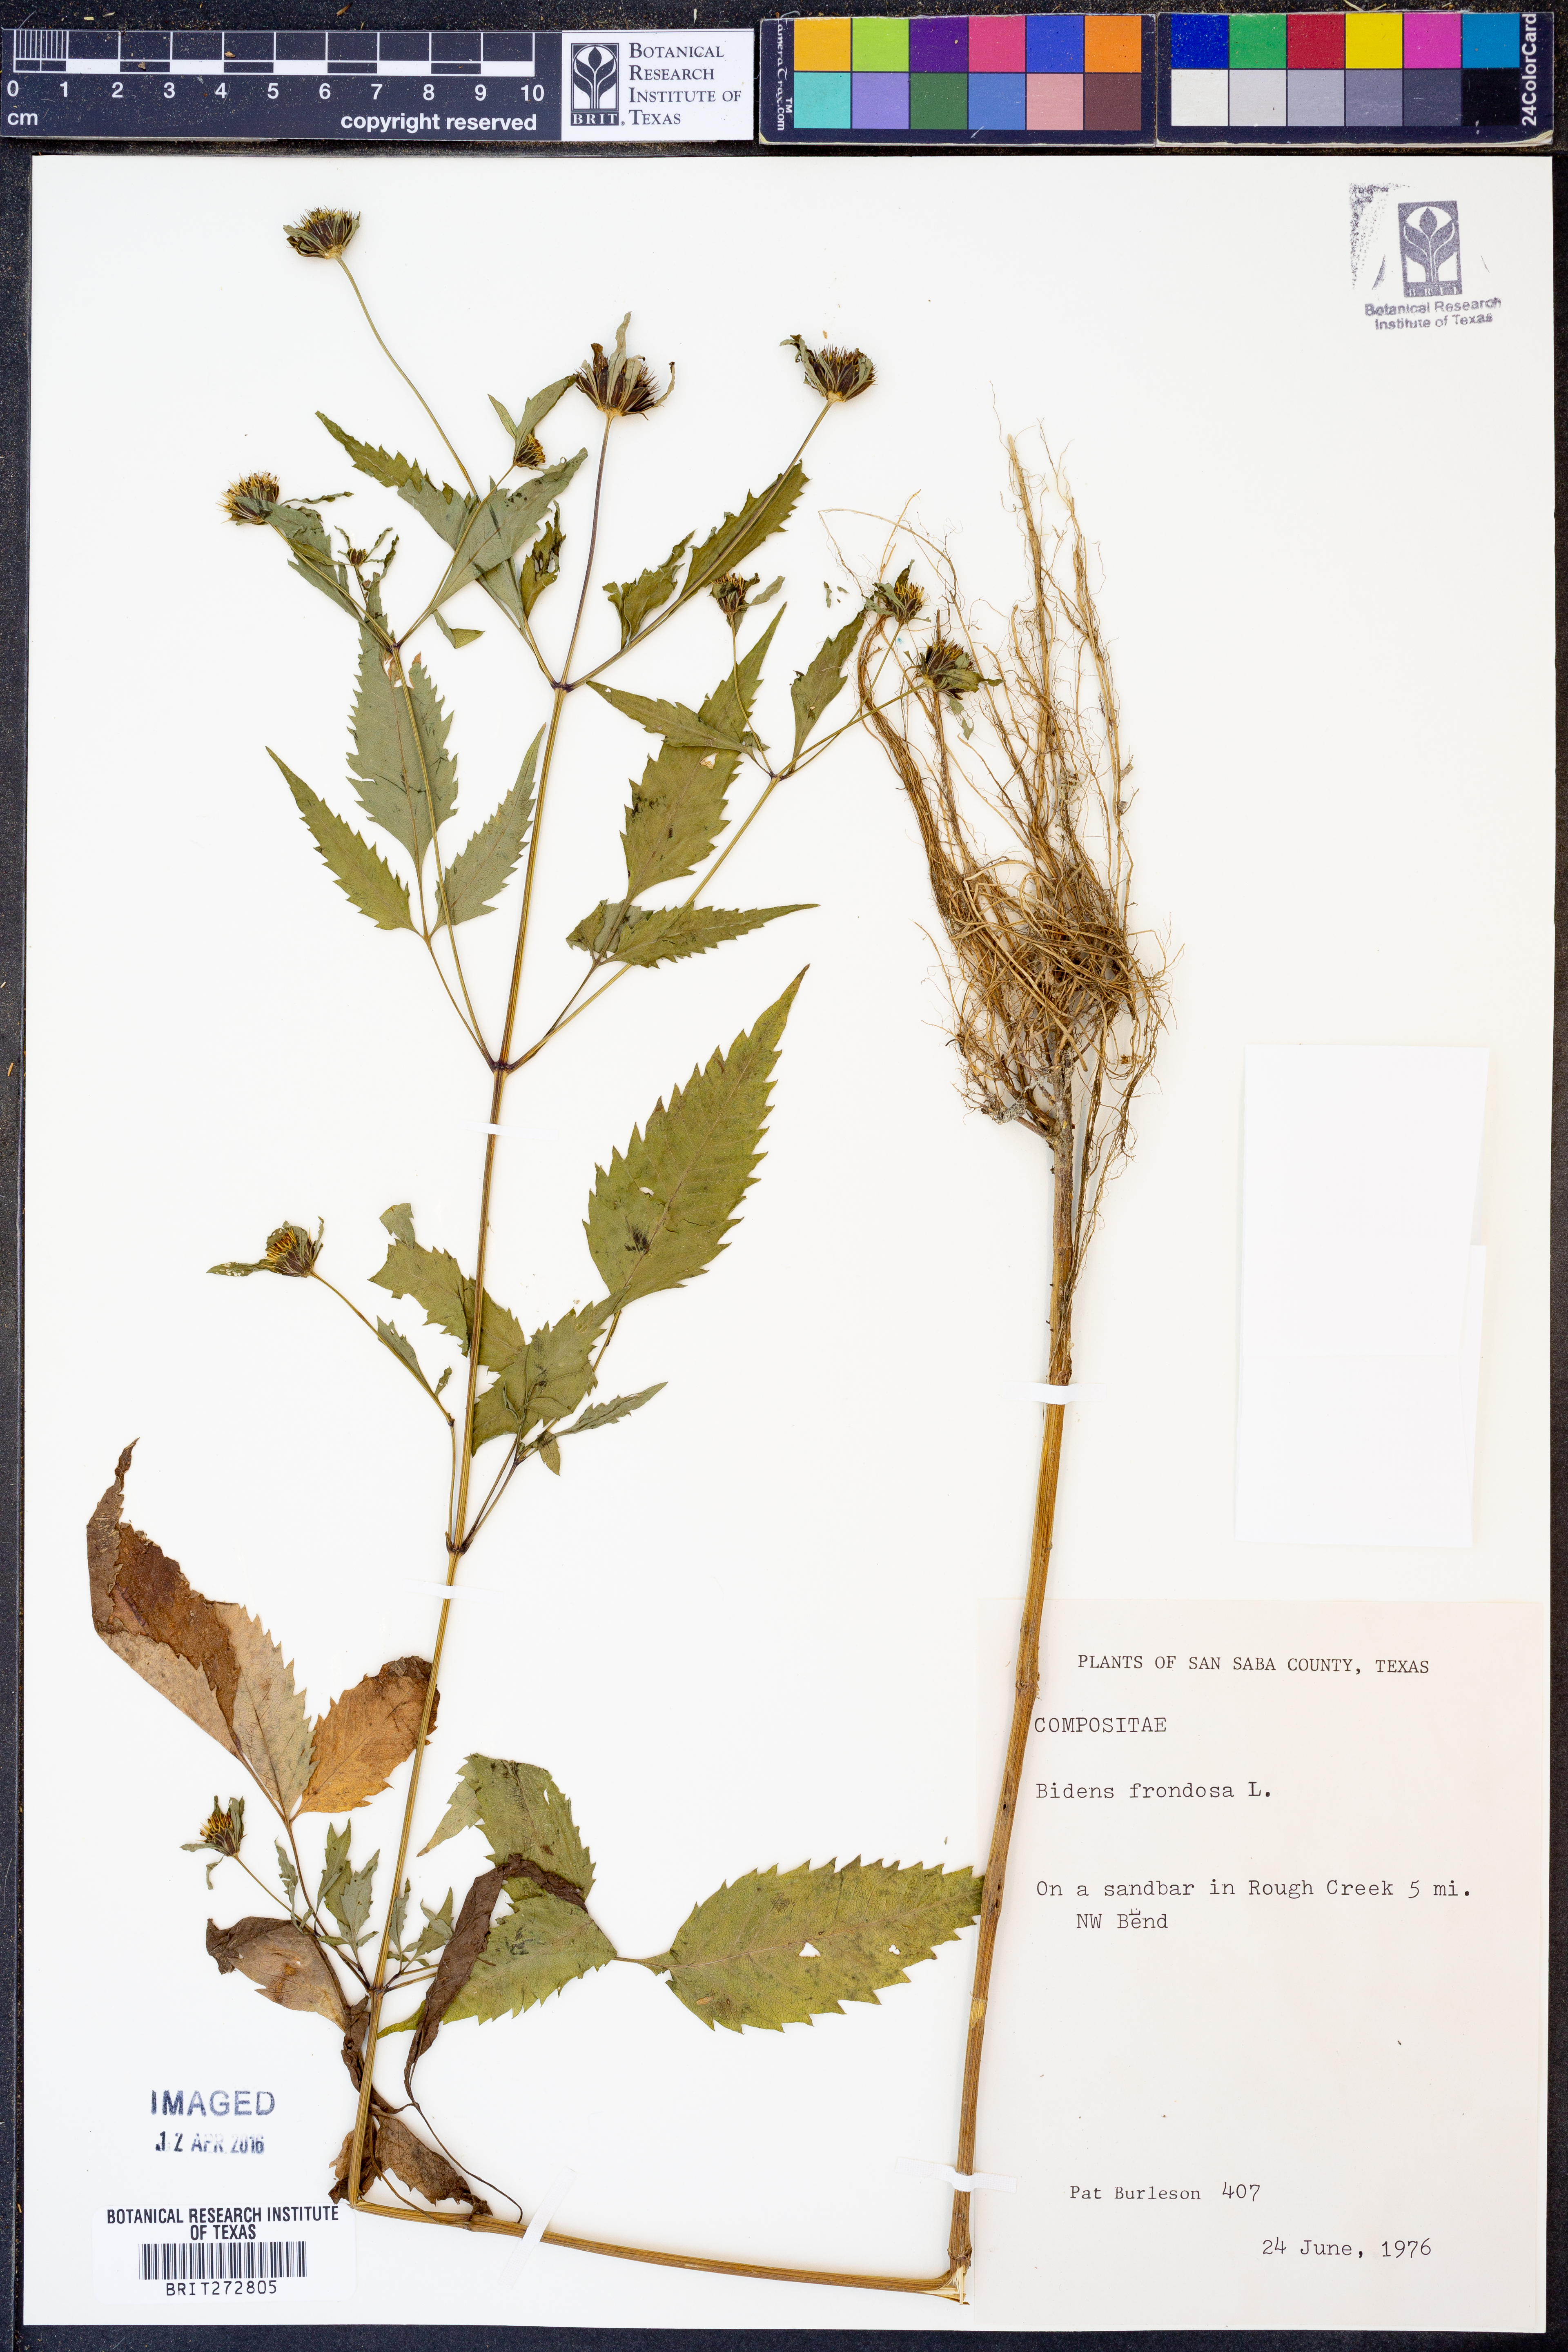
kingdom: Plantae
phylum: Tracheophyta
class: Magnoliopsida
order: Asterales
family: Asteraceae
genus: Bidens
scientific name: Bidens frondosa
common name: Beggarticks
